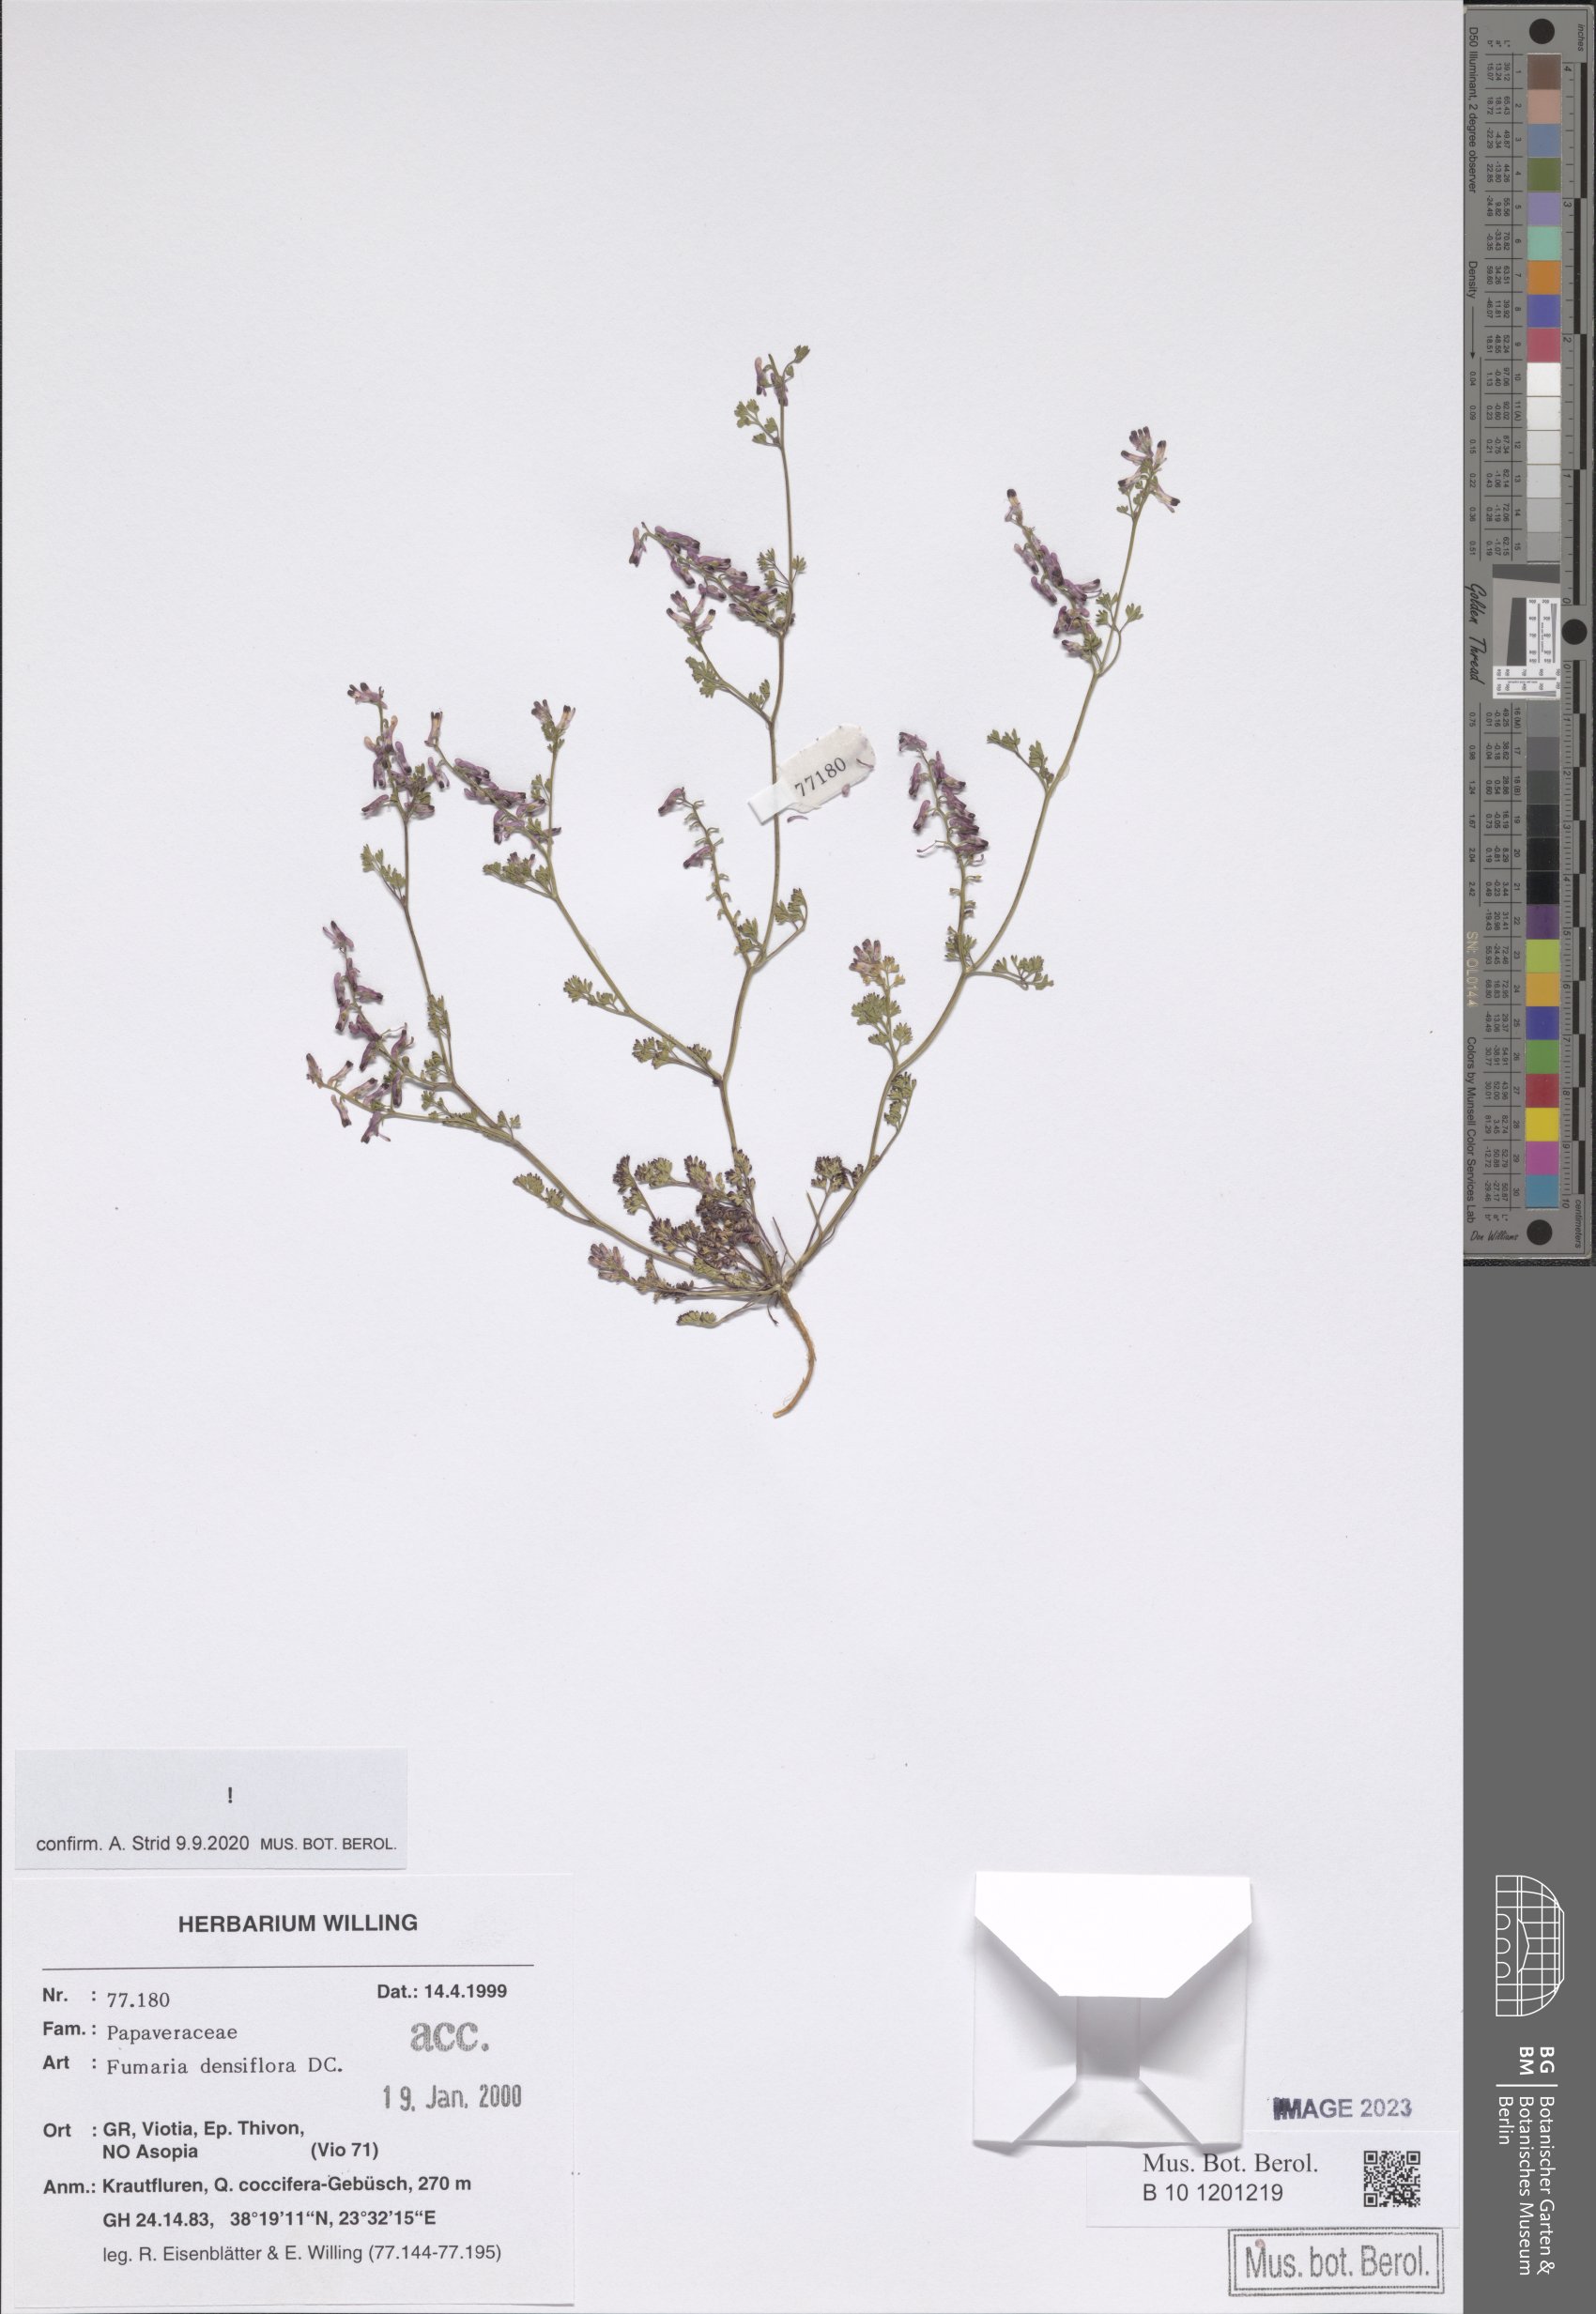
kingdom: Plantae
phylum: Tracheophyta
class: Magnoliopsida
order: Ranunculales
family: Papaveraceae
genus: Fumaria
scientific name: Fumaria densiflora
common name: Dense-flowered fumitory
